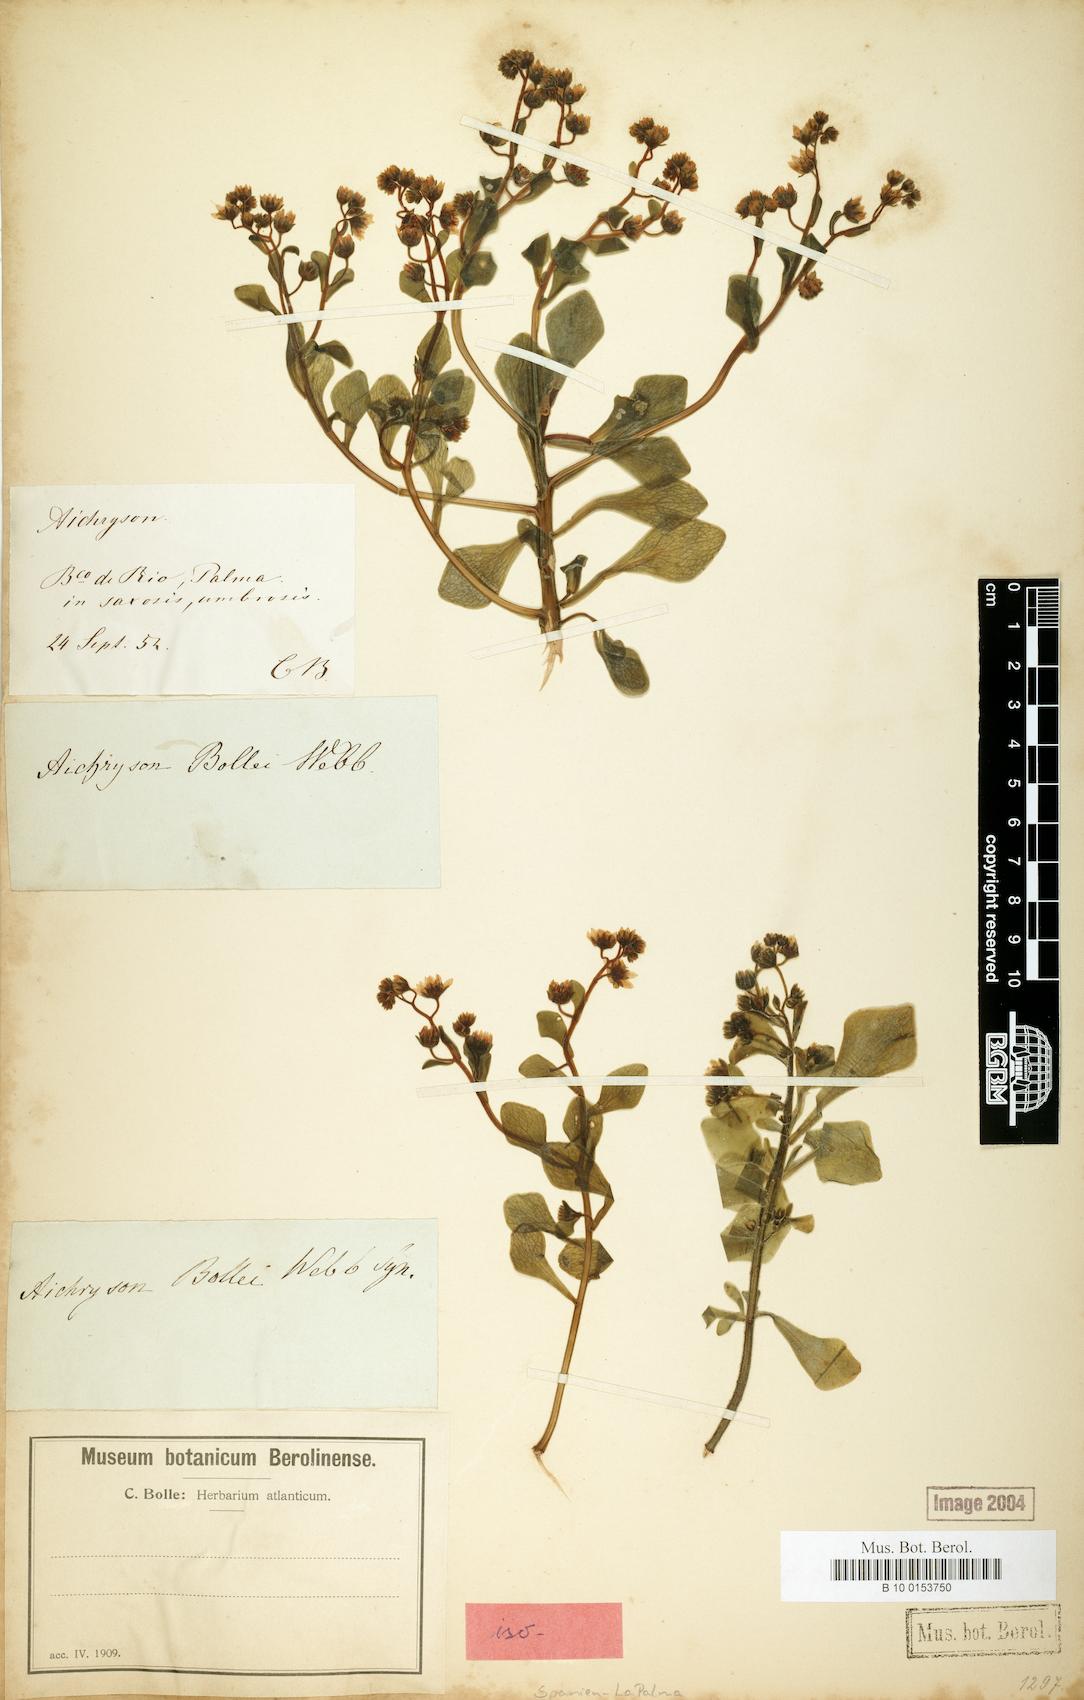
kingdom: Plantae
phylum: Tracheophyta
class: Magnoliopsida
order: Saxifragales
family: Crassulaceae
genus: Aichryson
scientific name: Aichryson bollei
